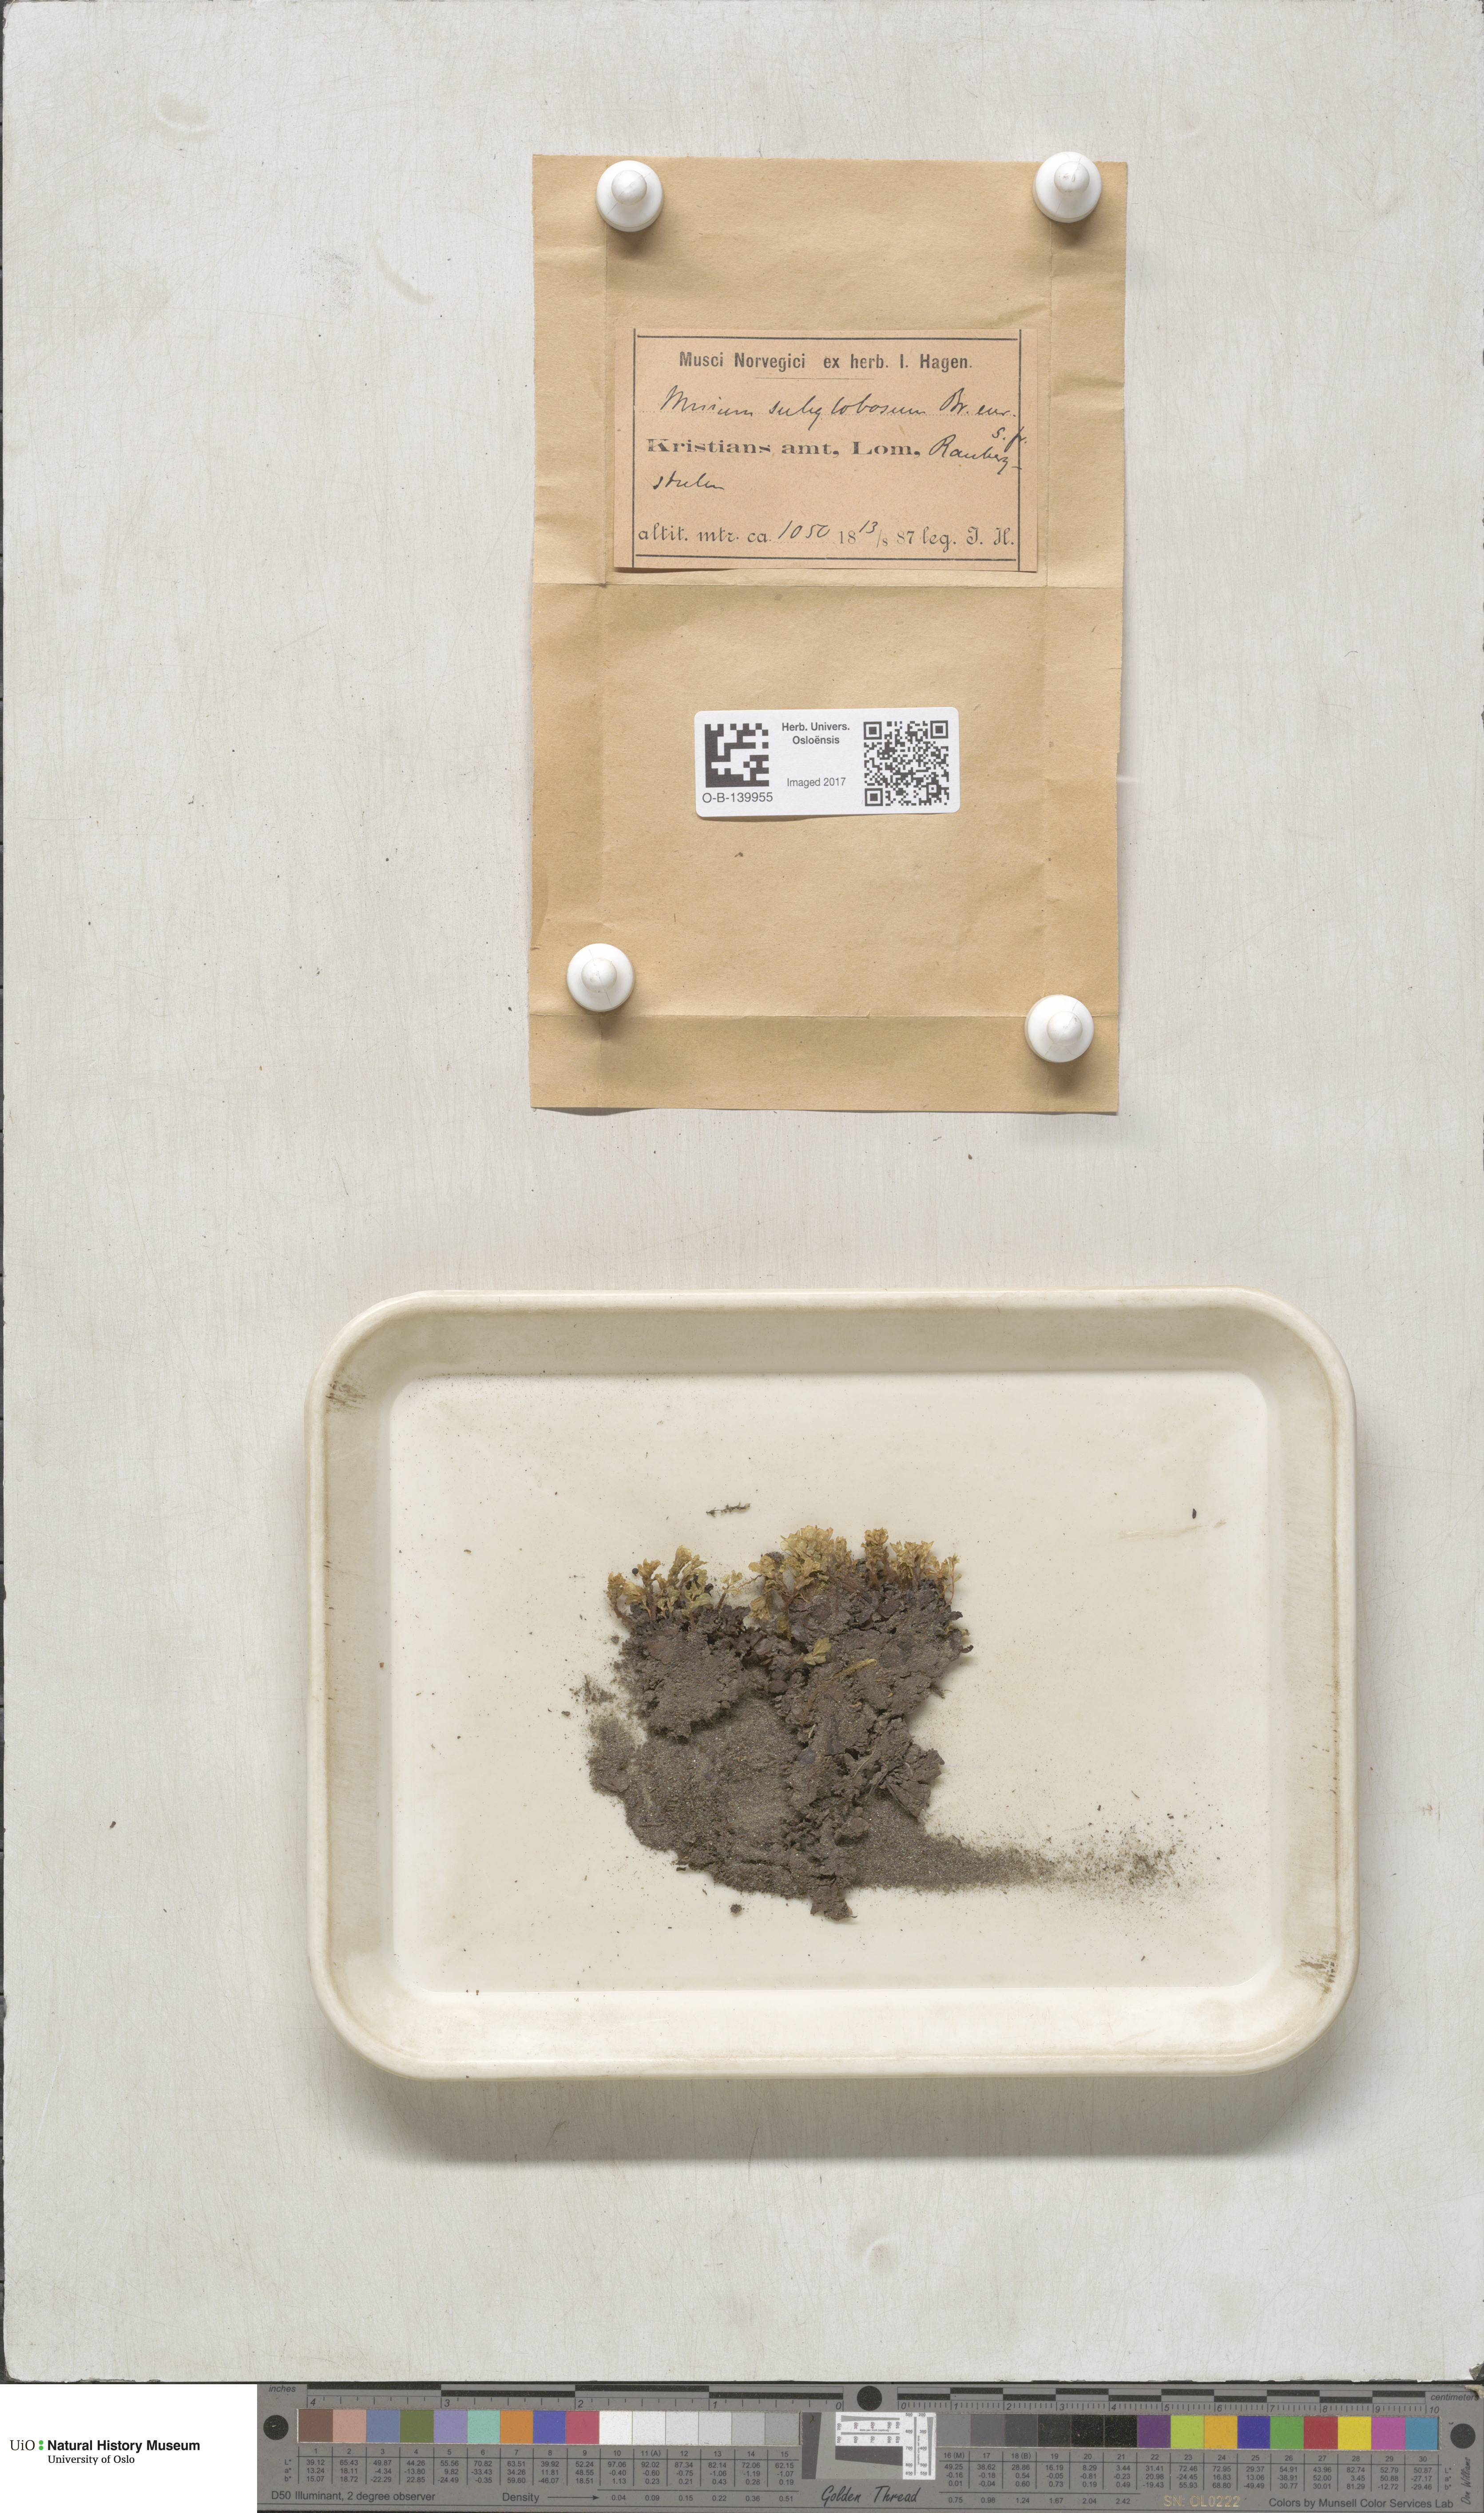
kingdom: Plantae
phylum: Bryophyta
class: Bryopsida
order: Bryales
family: Mniaceae
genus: Rhizomnium
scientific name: Rhizomnium pseudopunctatum
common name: Felted leafy moss
